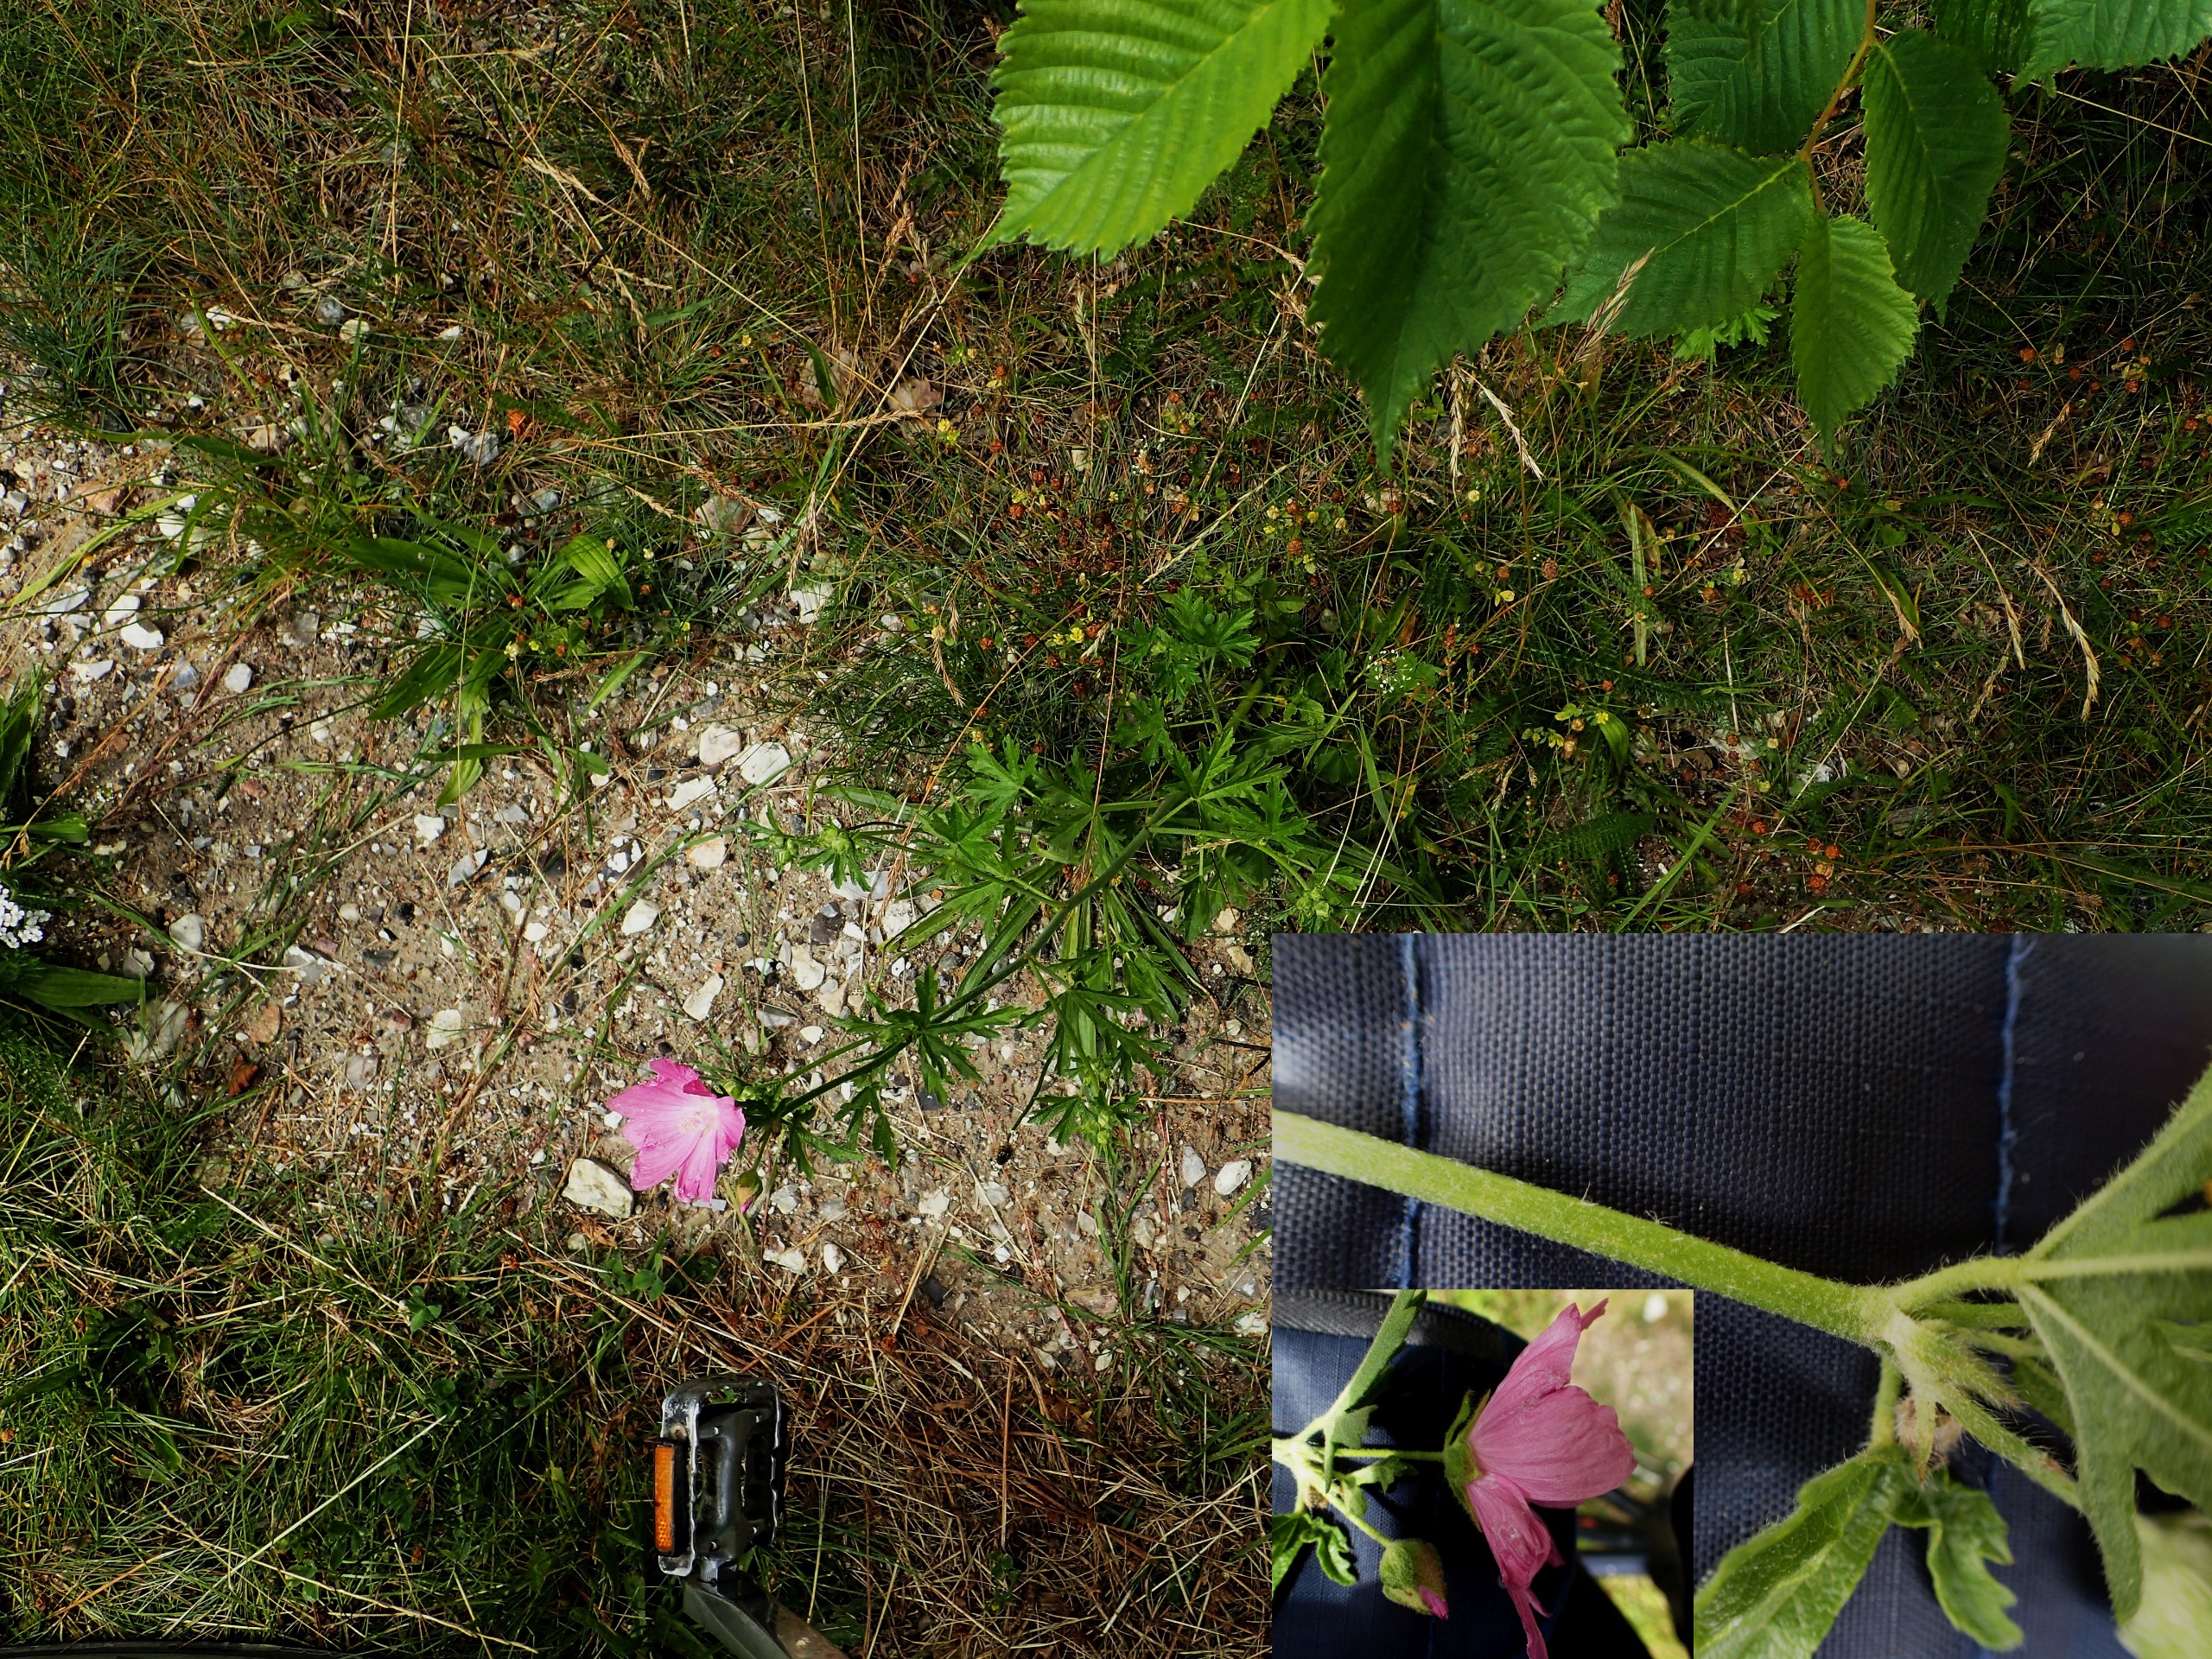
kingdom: Plantae
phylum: Tracheophyta
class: Magnoliopsida
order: Malvales
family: Malvaceae
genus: Malva
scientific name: Malva alcea
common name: Rosen-katost
